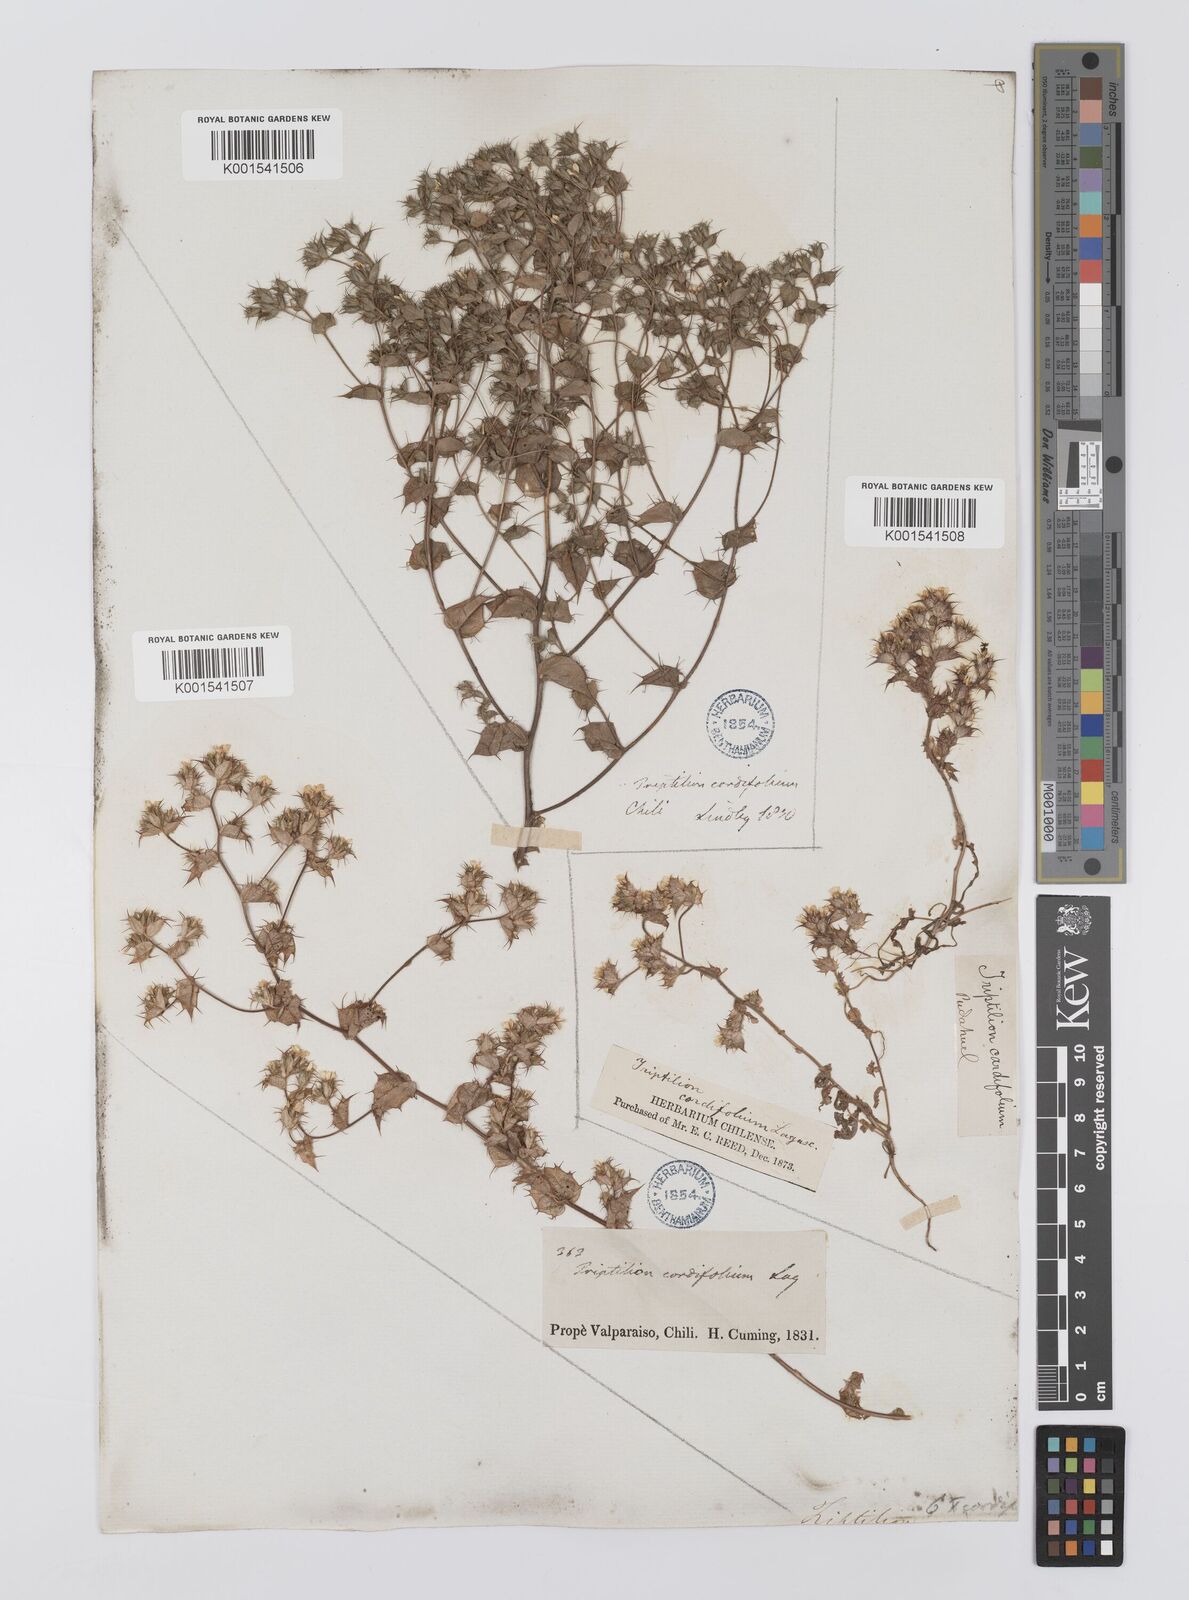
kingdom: Plantae
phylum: Tracheophyta
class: Magnoliopsida
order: Asterales
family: Asteraceae
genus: Triptilion
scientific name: Triptilion cordifolium
